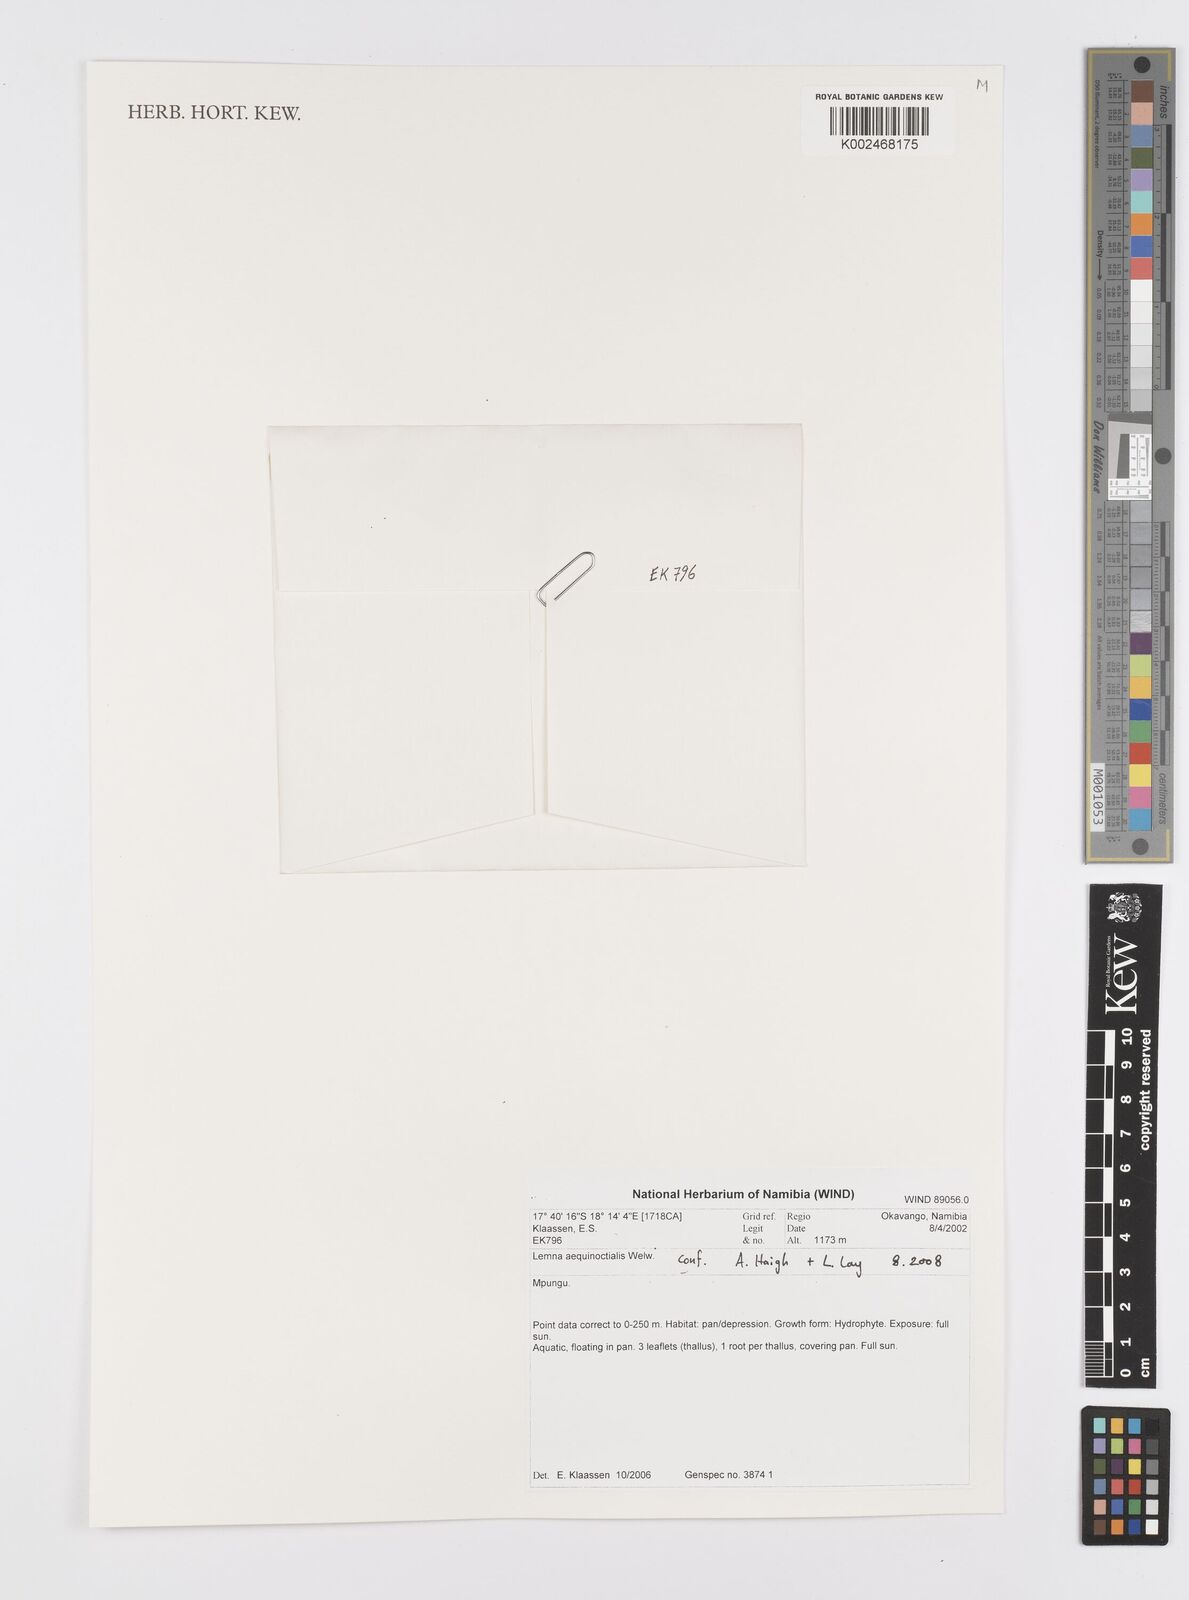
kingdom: Plantae
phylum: Tracheophyta
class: Liliopsida
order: Alismatales
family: Araceae
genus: Lemna
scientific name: Lemna aequinoctialis
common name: Duckweed
